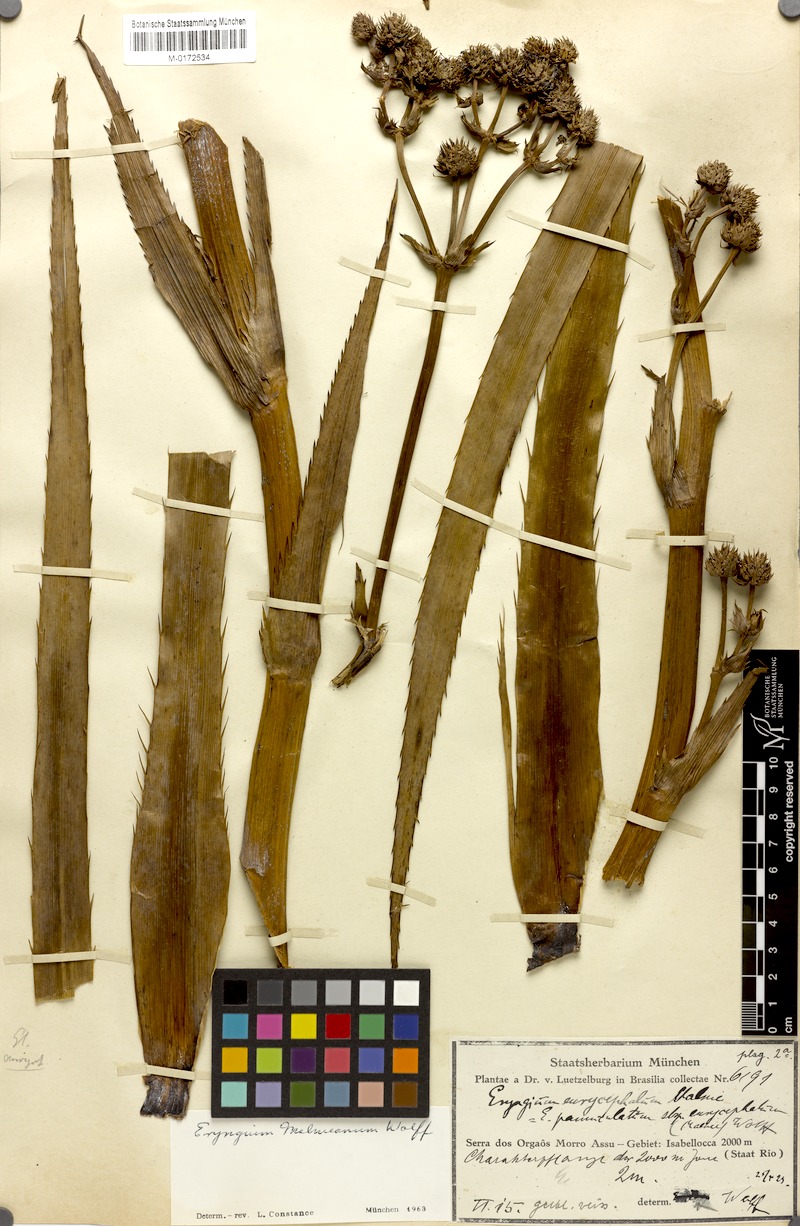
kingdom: Plantae
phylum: Tracheophyta
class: Magnoliopsida
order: Apiales
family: Apiaceae
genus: Eryngium
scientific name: Eryngium malmeanum
